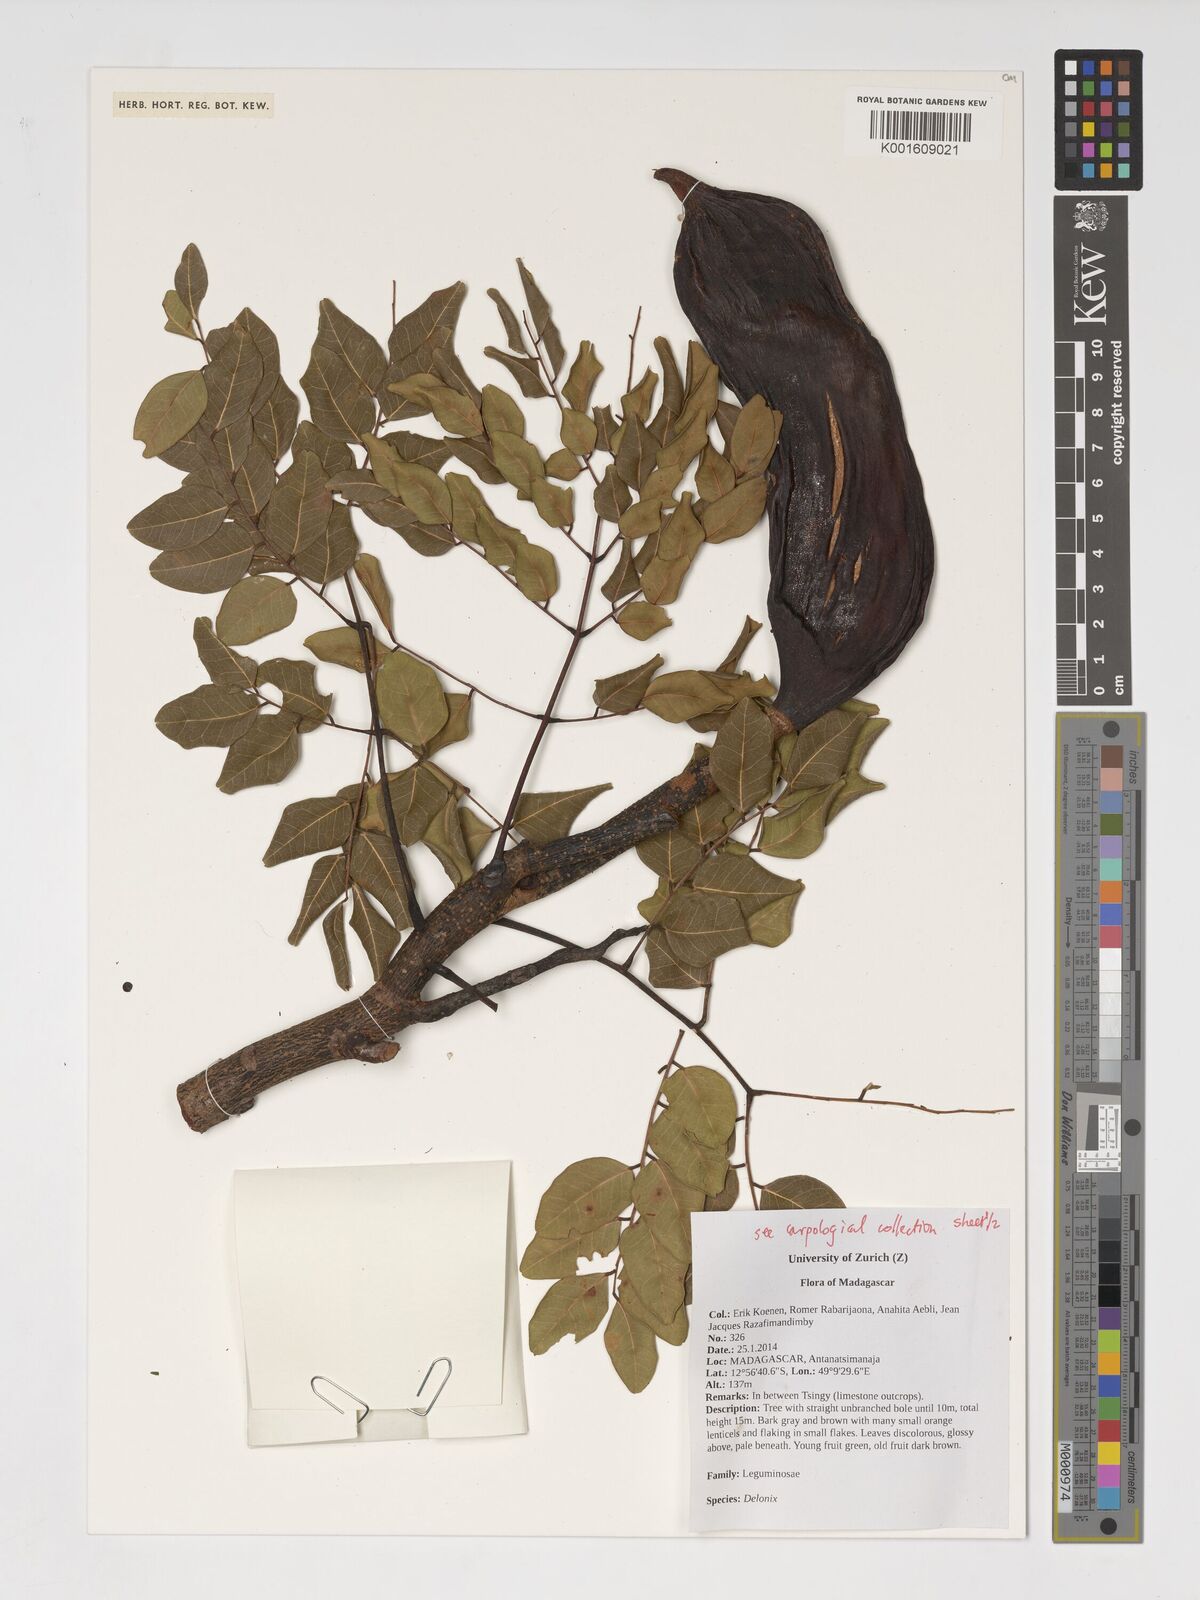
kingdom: Plantae
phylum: Tracheophyta
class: Magnoliopsida
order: Fabales
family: Fabaceae
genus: Delonix
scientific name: Delonix
